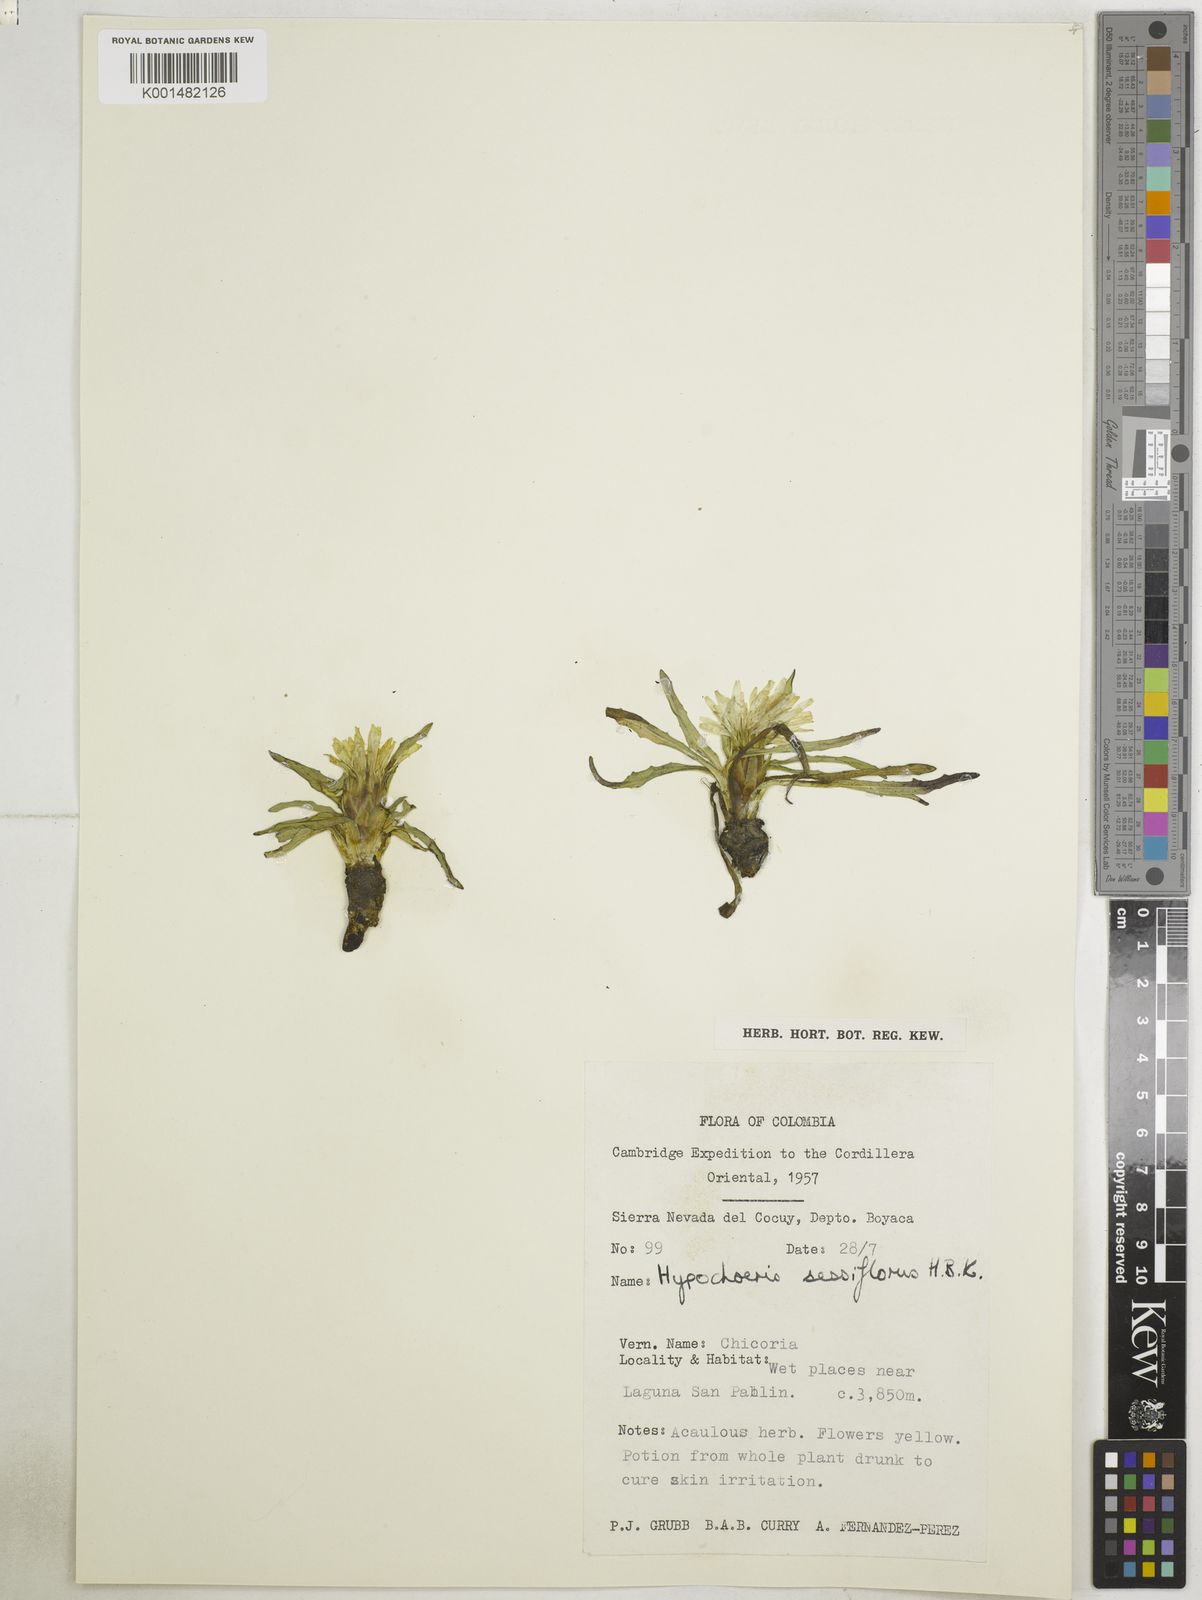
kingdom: Plantae
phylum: Tracheophyta
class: Magnoliopsida
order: Asterales
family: Asteraceae
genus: Hypochaeris
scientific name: Hypochaeris sessiliflora
